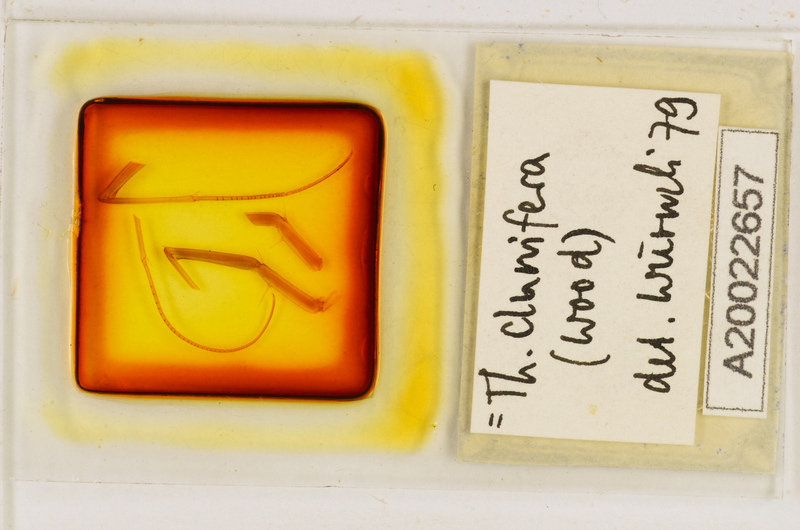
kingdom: Animalia
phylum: Arthropoda
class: Chilopoda
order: Scutigeromorpha
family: Scutigeridae
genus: Thereuopoda
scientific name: Thereuopoda clunifera
